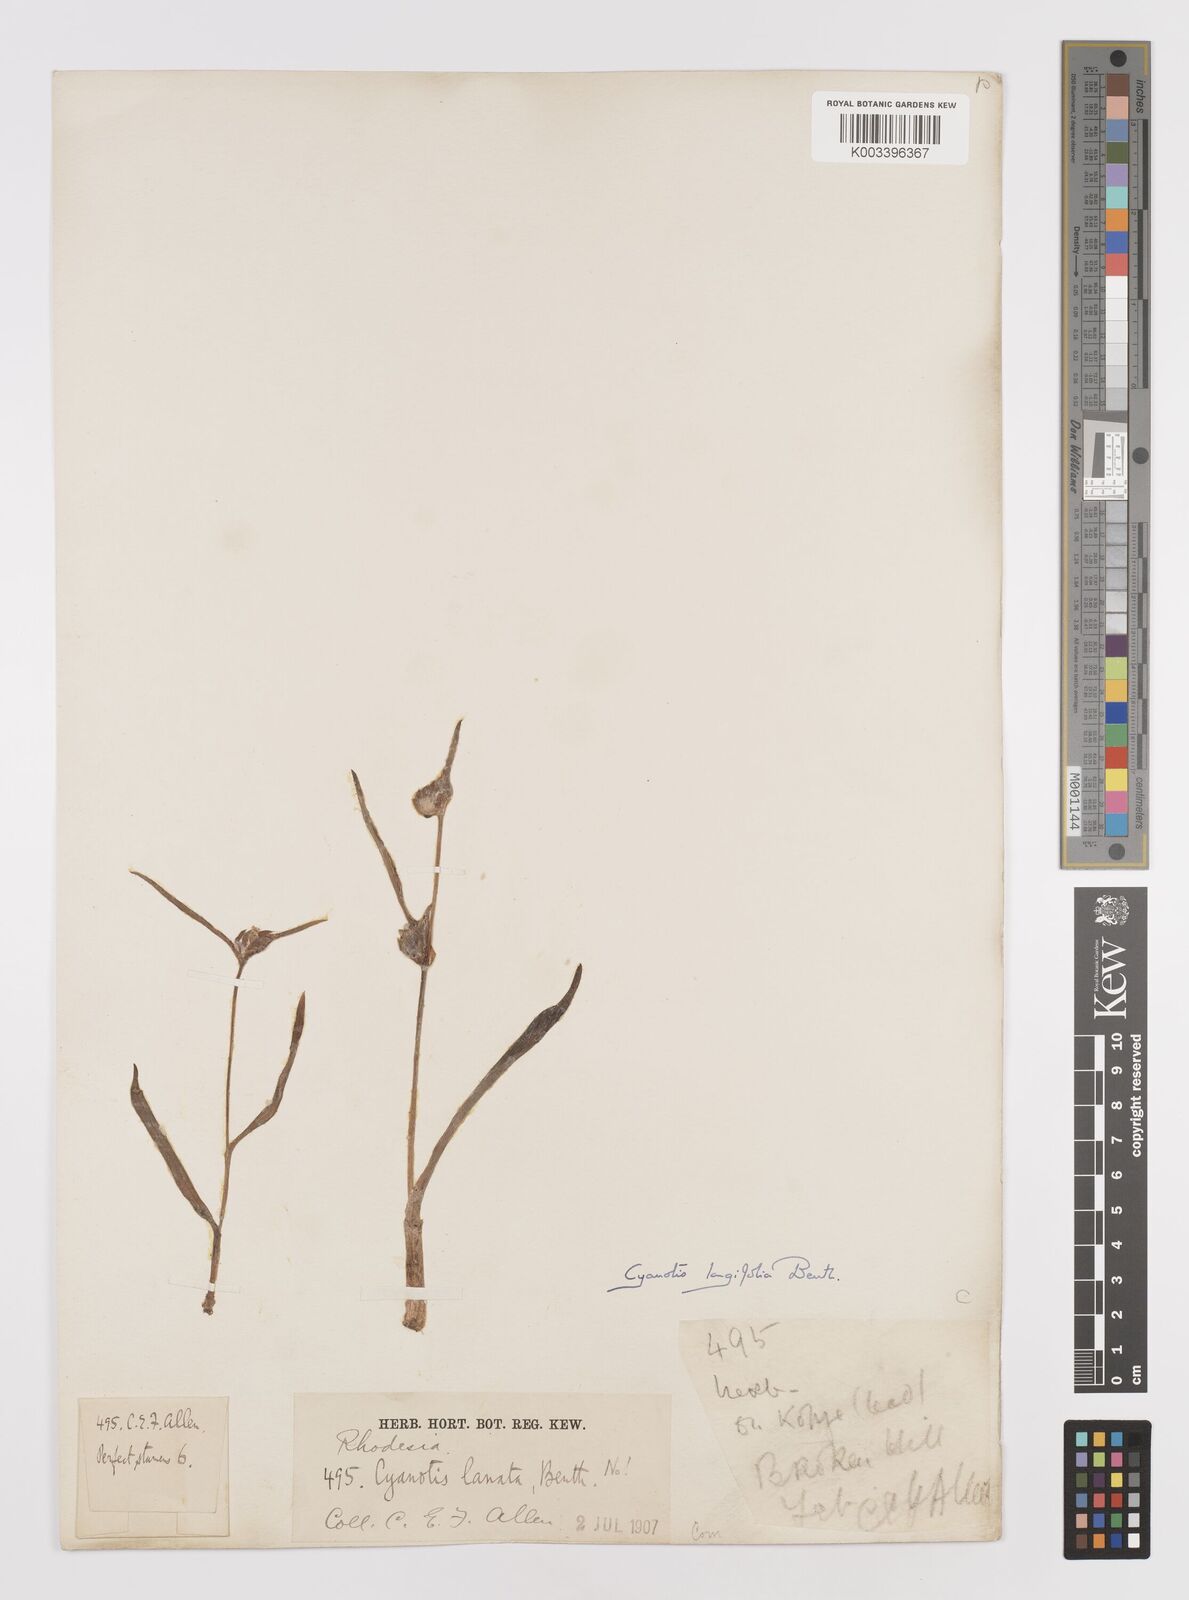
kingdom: Plantae
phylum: Tracheophyta
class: Liliopsida
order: Commelinales
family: Commelinaceae
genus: Cyanotis
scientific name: Cyanotis longifolia
